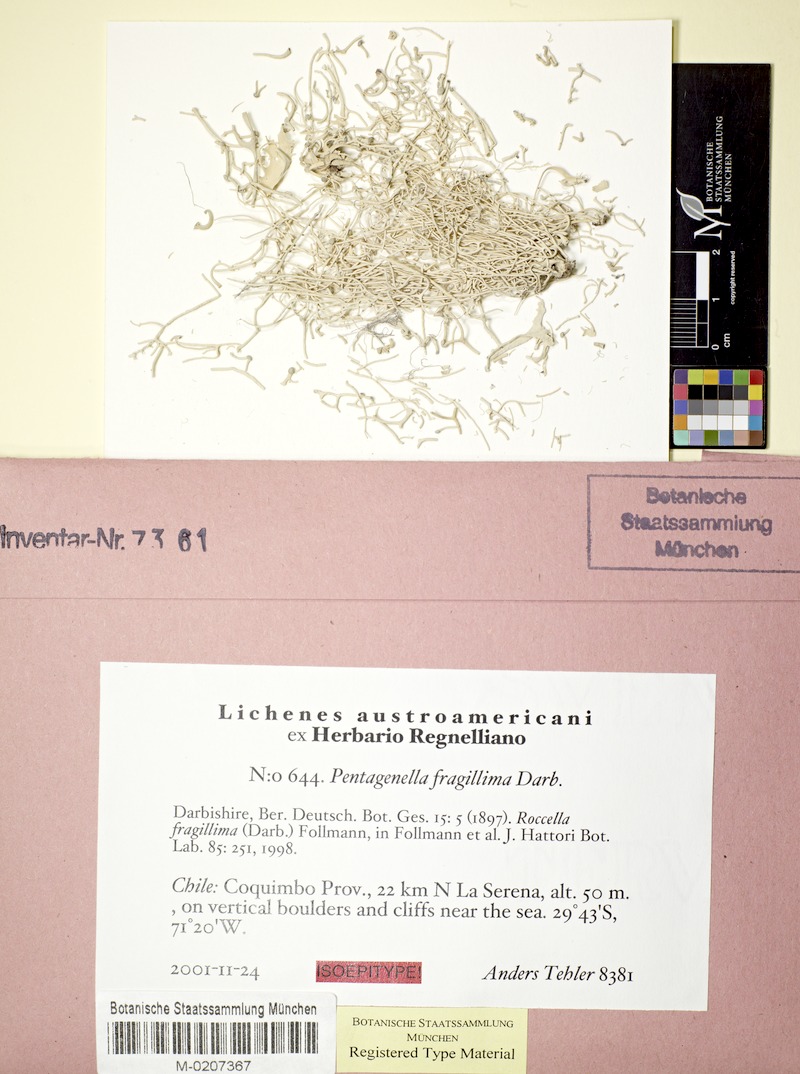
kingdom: Fungi
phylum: Ascomycota
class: Arthoniomycetes
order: Arthoniales
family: Opegraphaceae
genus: Pentagenella
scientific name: Pentagenella fragillima
